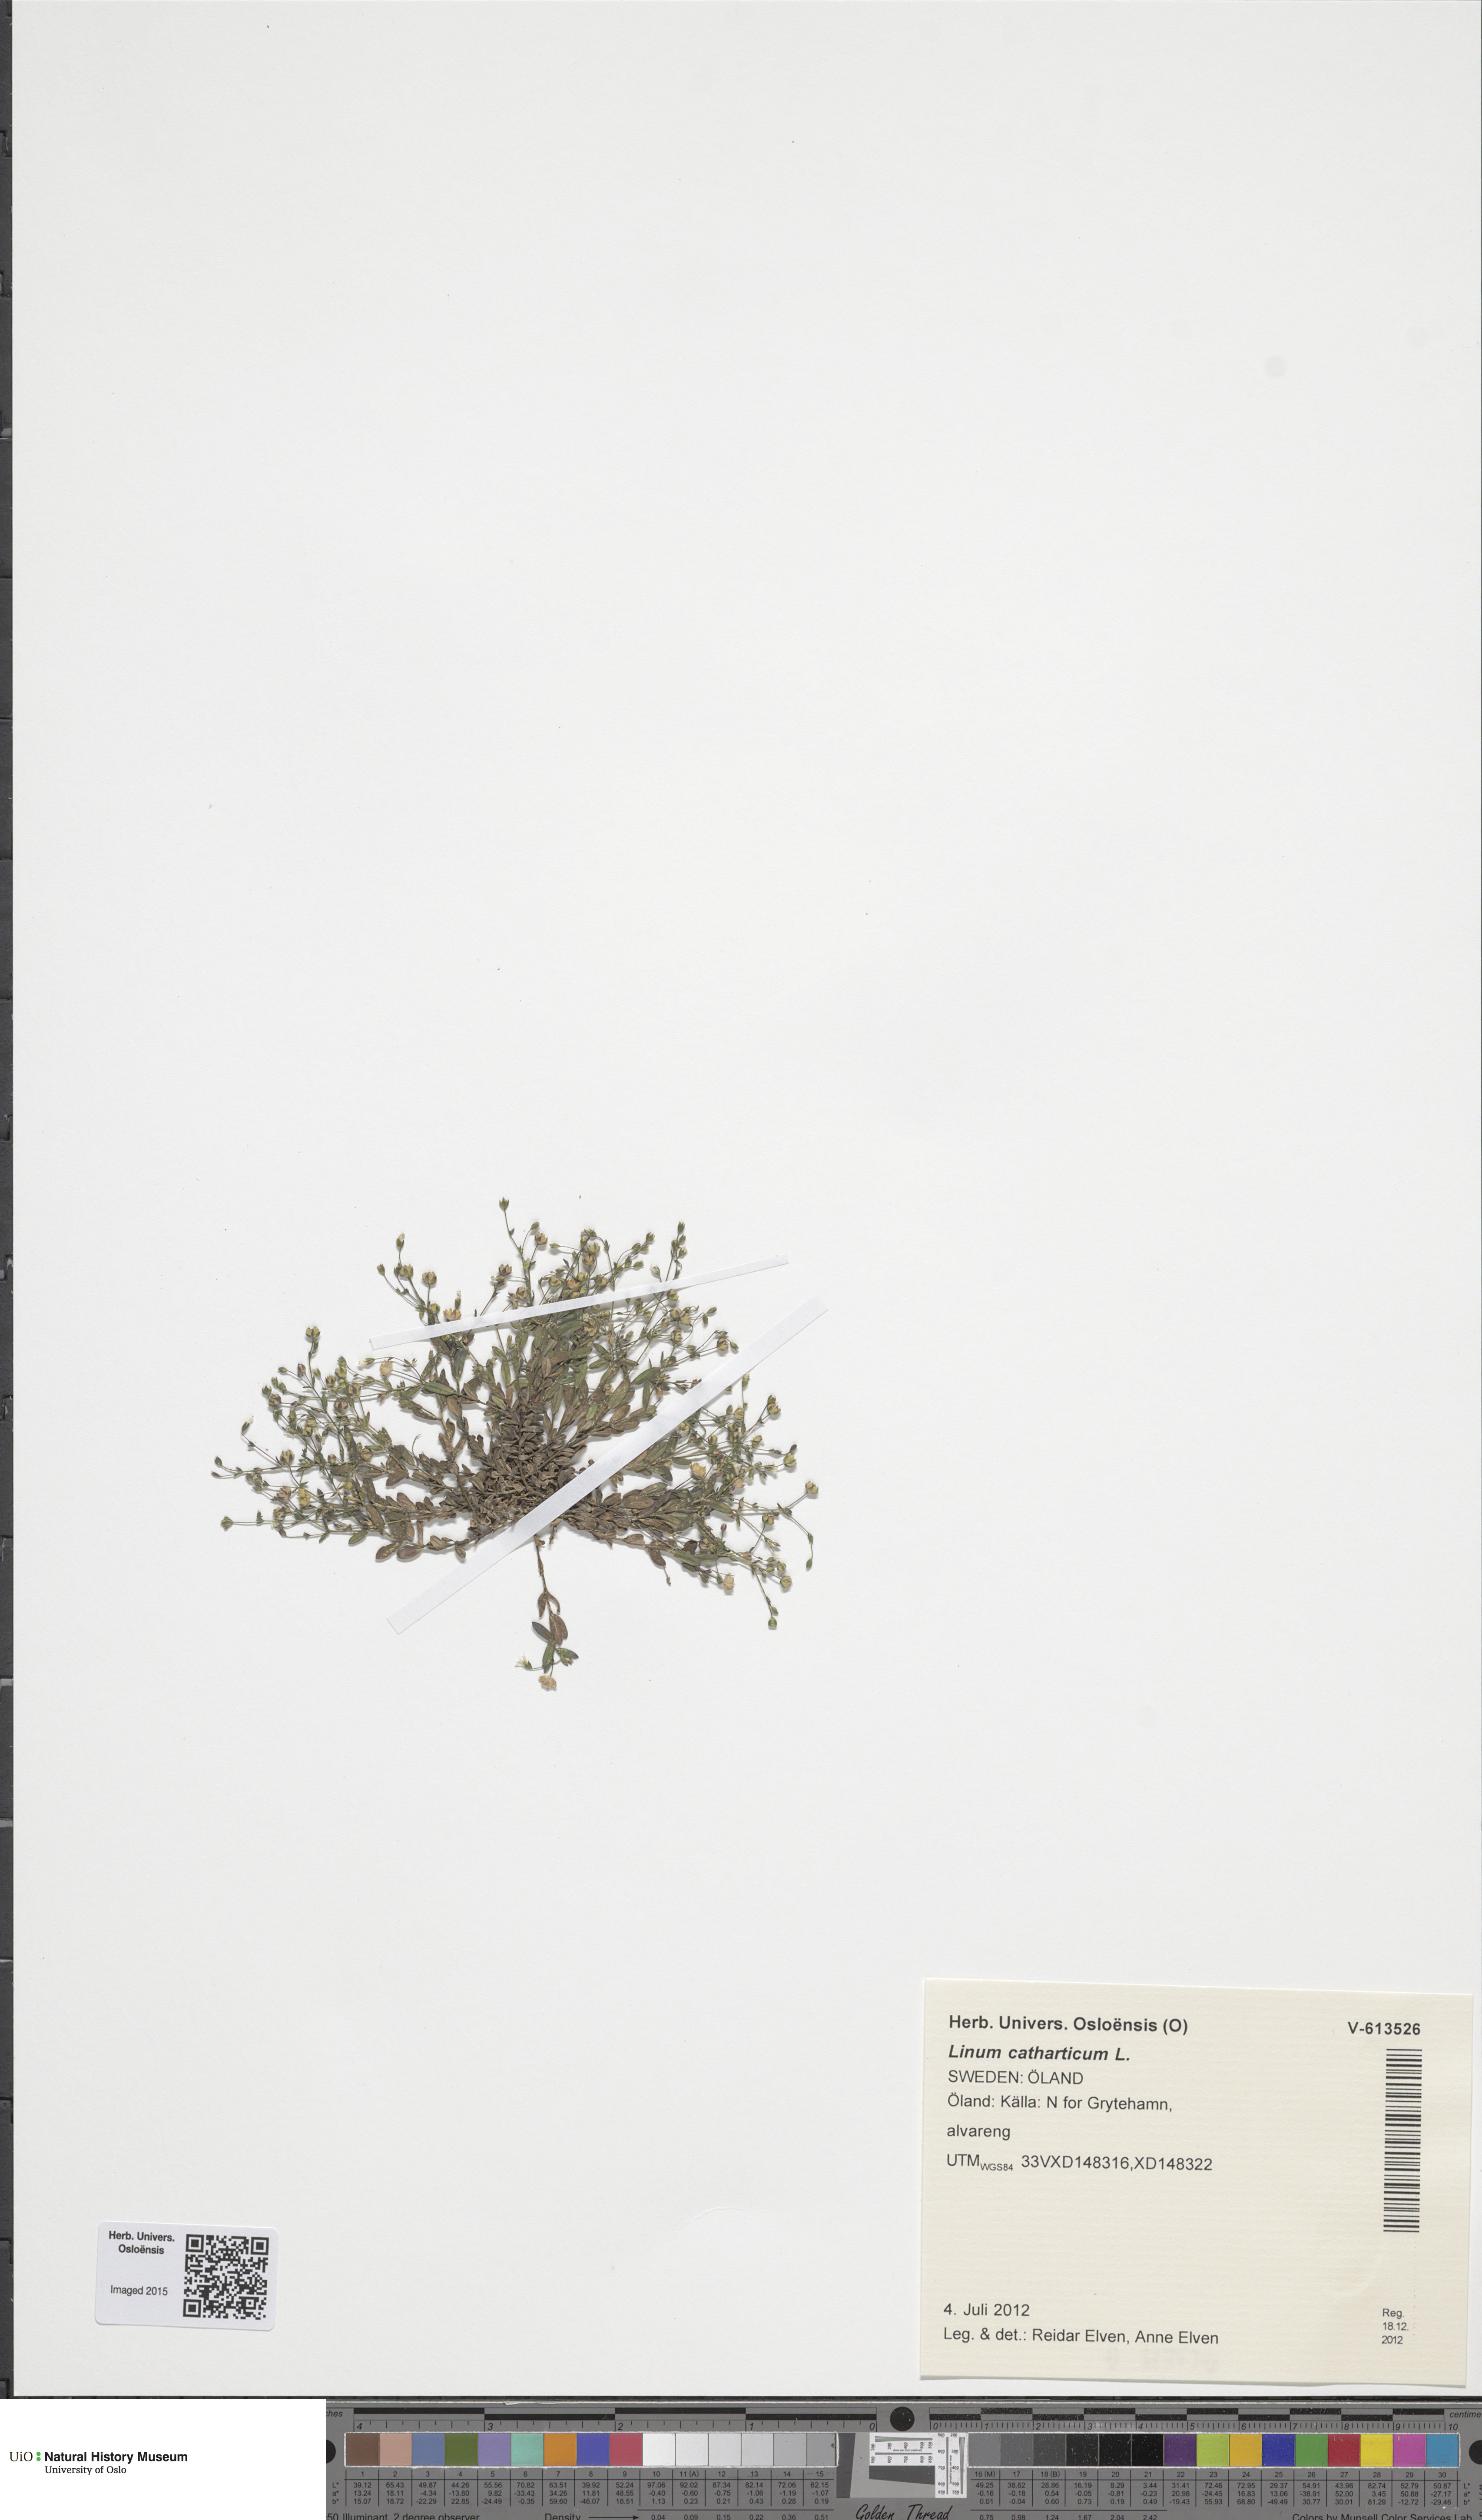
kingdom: Plantae
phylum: Tracheophyta
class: Magnoliopsida
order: Malpighiales
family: Linaceae
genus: Linum
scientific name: Linum catharticum
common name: Fairy flax
